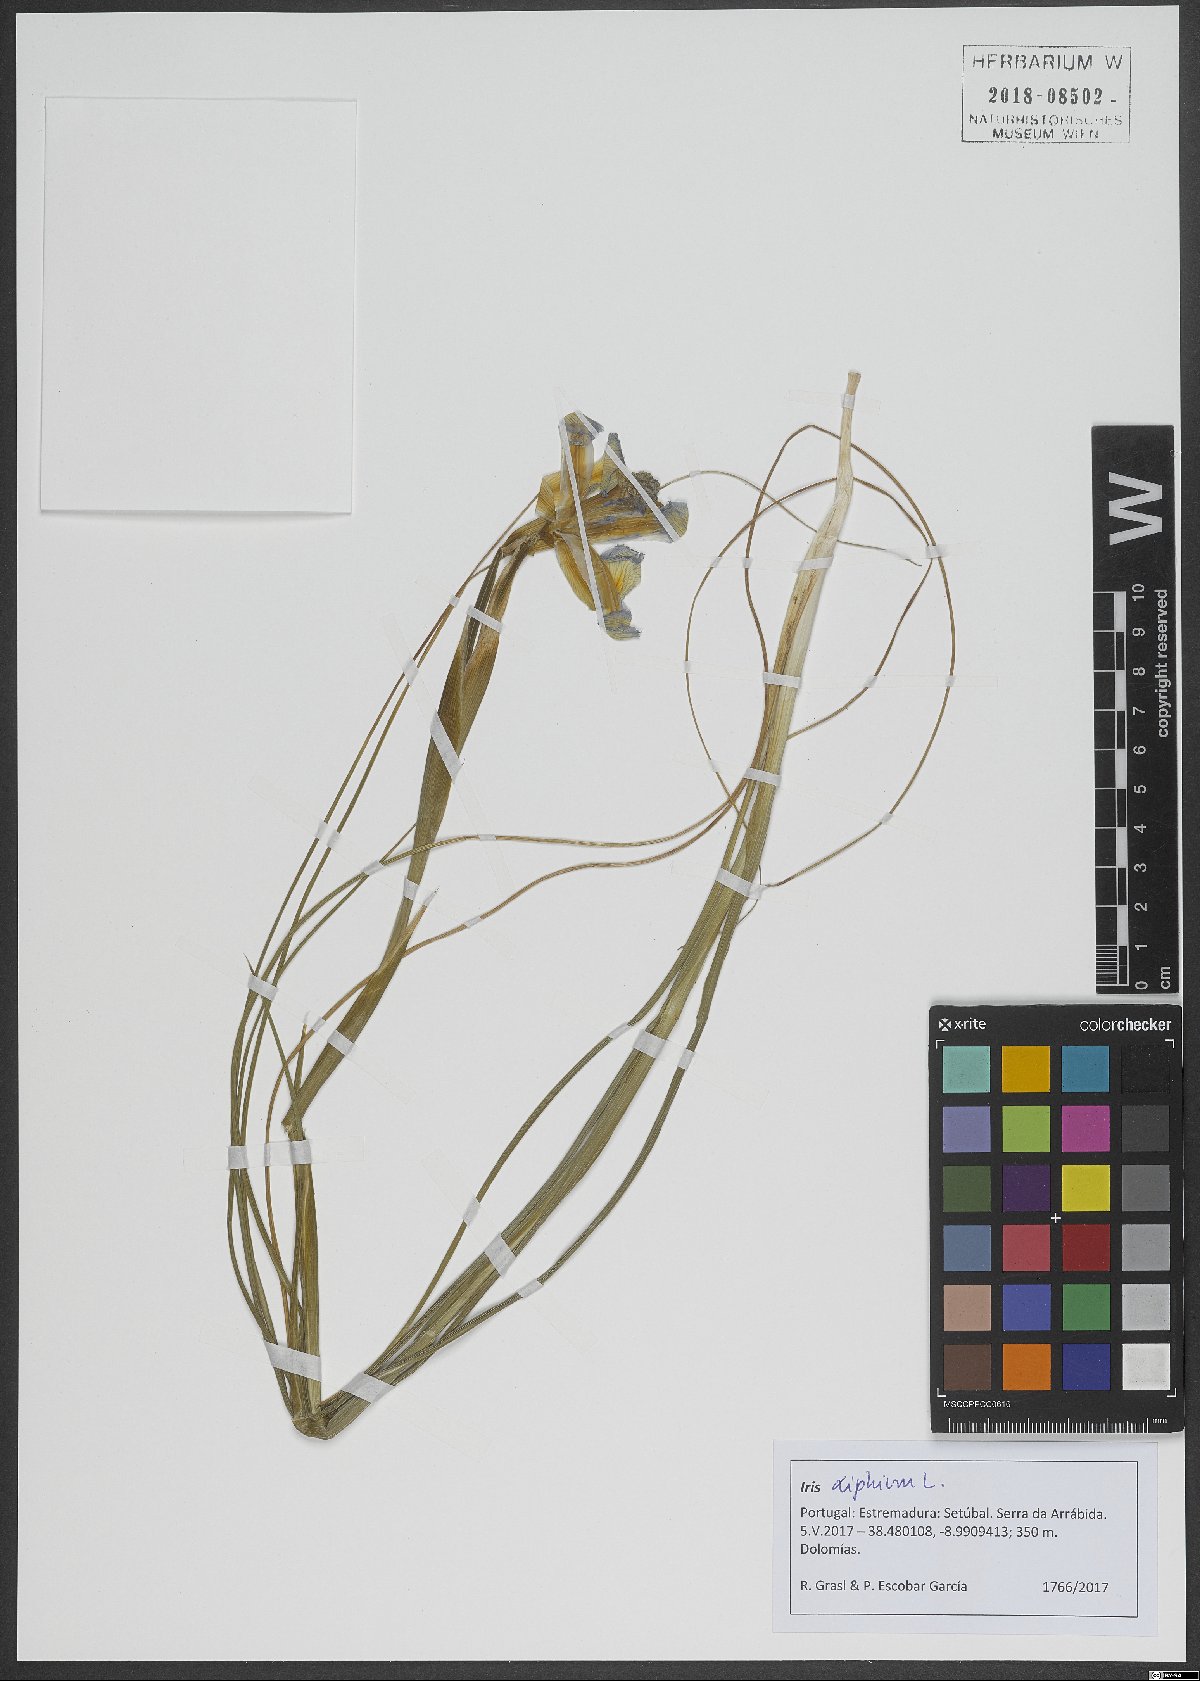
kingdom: Plantae
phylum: Tracheophyta
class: Liliopsida
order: Asparagales
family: Iridaceae
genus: Iris
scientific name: Iris xiphium
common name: Spanish iris
